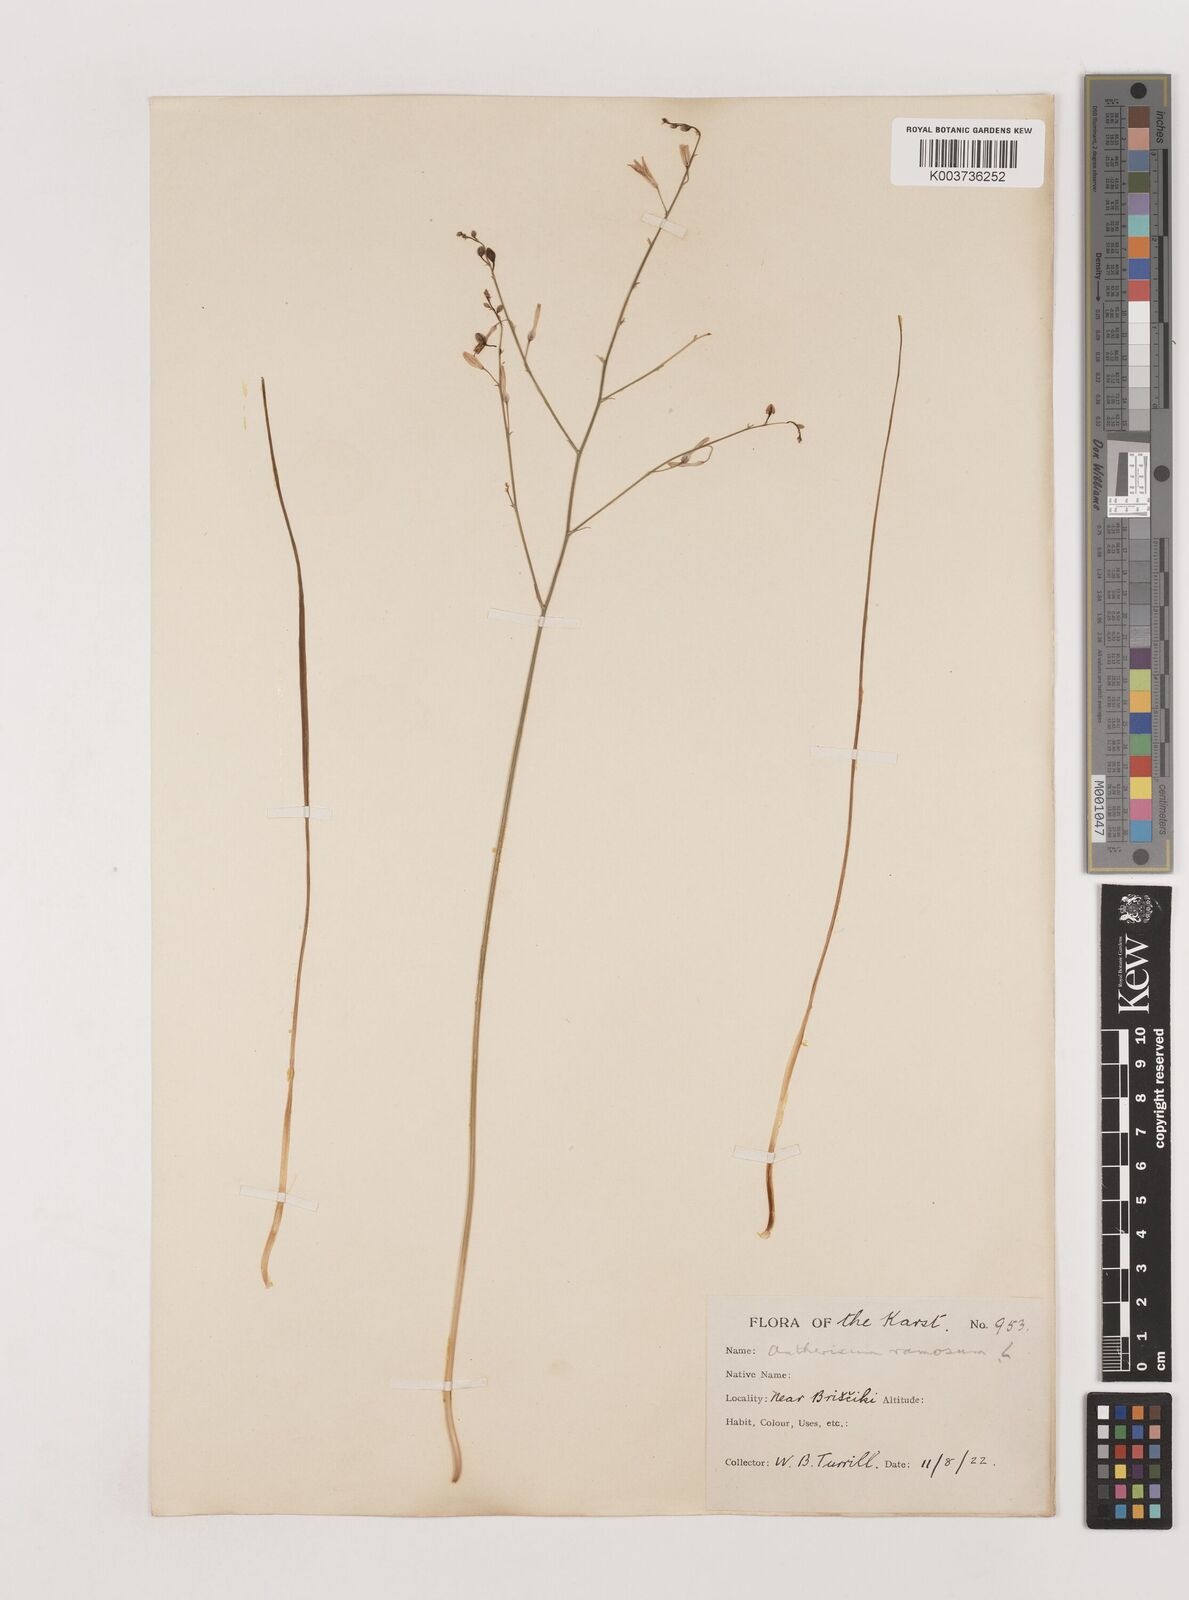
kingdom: Plantae
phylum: Tracheophyta
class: Liliopsida
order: Asparagales
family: Asparagaceae
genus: Anthericum
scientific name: Anthericum ramosum
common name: Branched st. bernard's-lily
